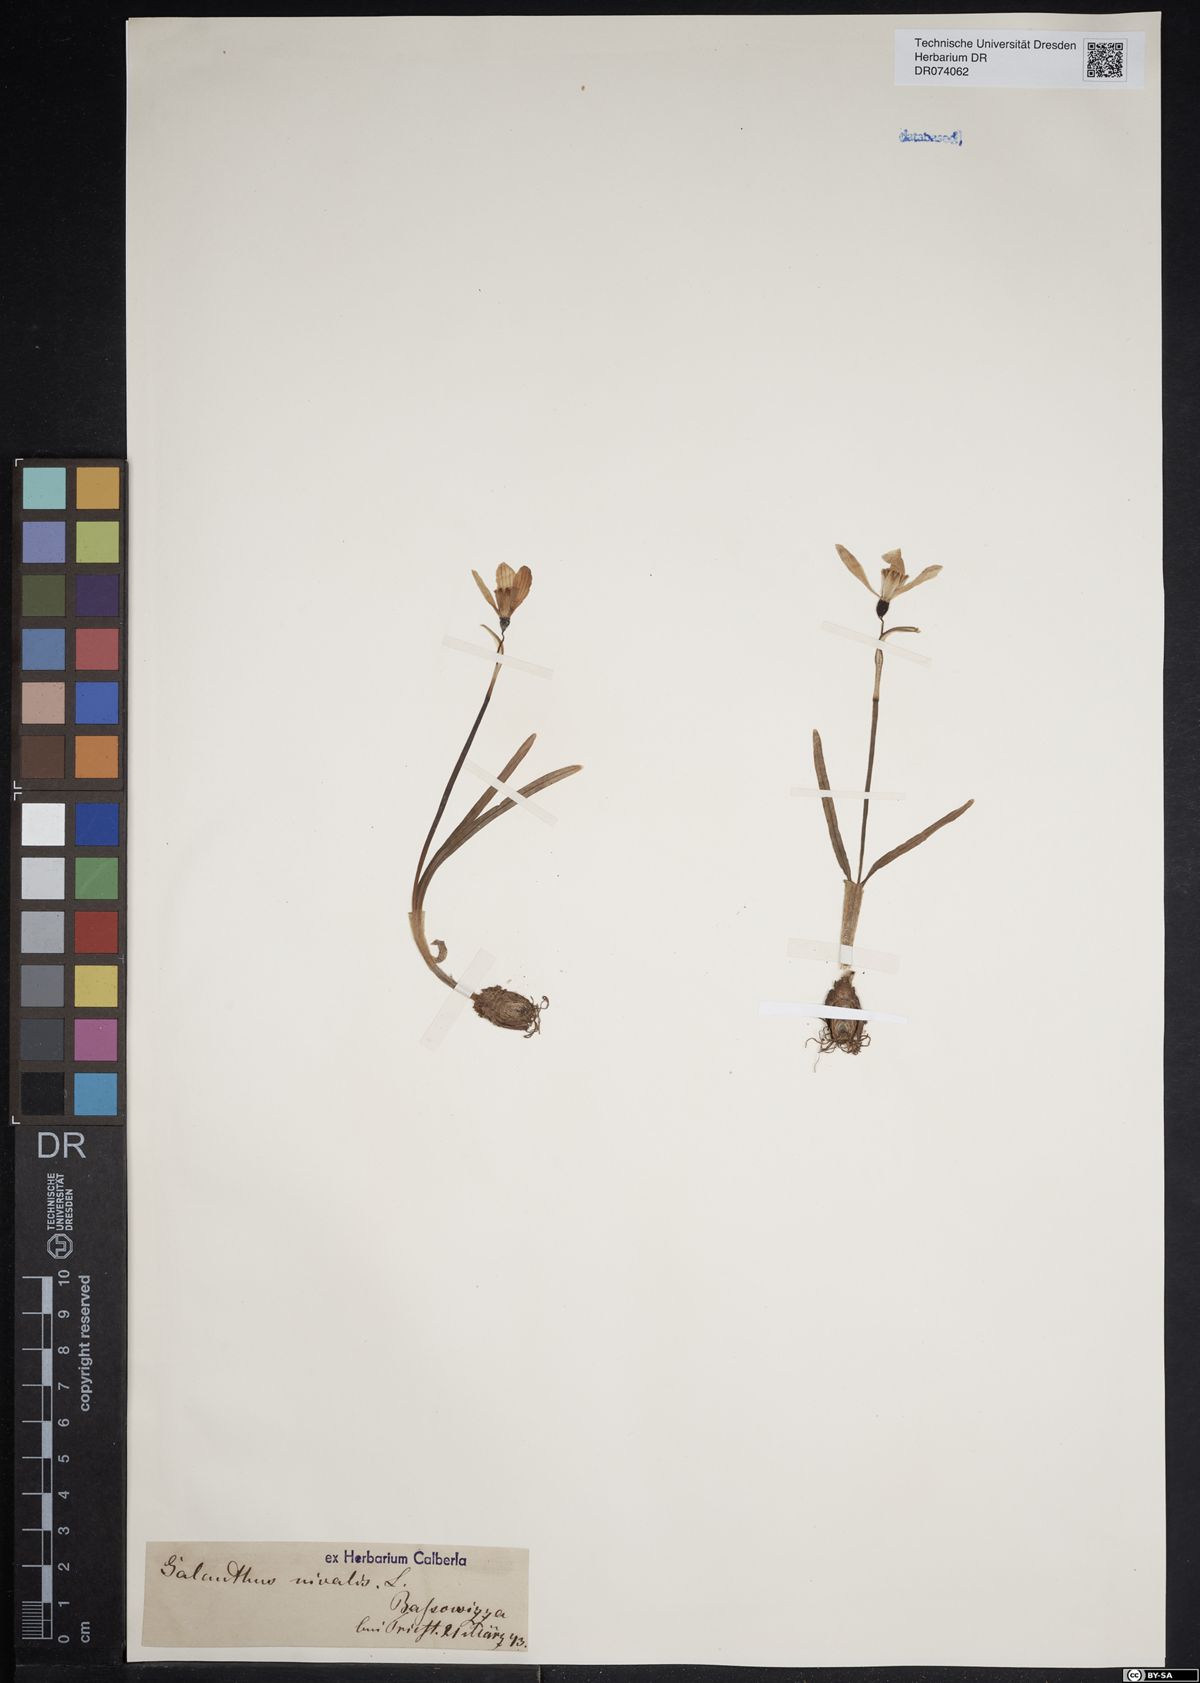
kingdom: Plantae
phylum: Tracheophyta
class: Liliopsida
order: Asparagales
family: Amaryllidaceae
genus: Galanthus
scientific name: Galanthus nivalis
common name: Snowdrop
